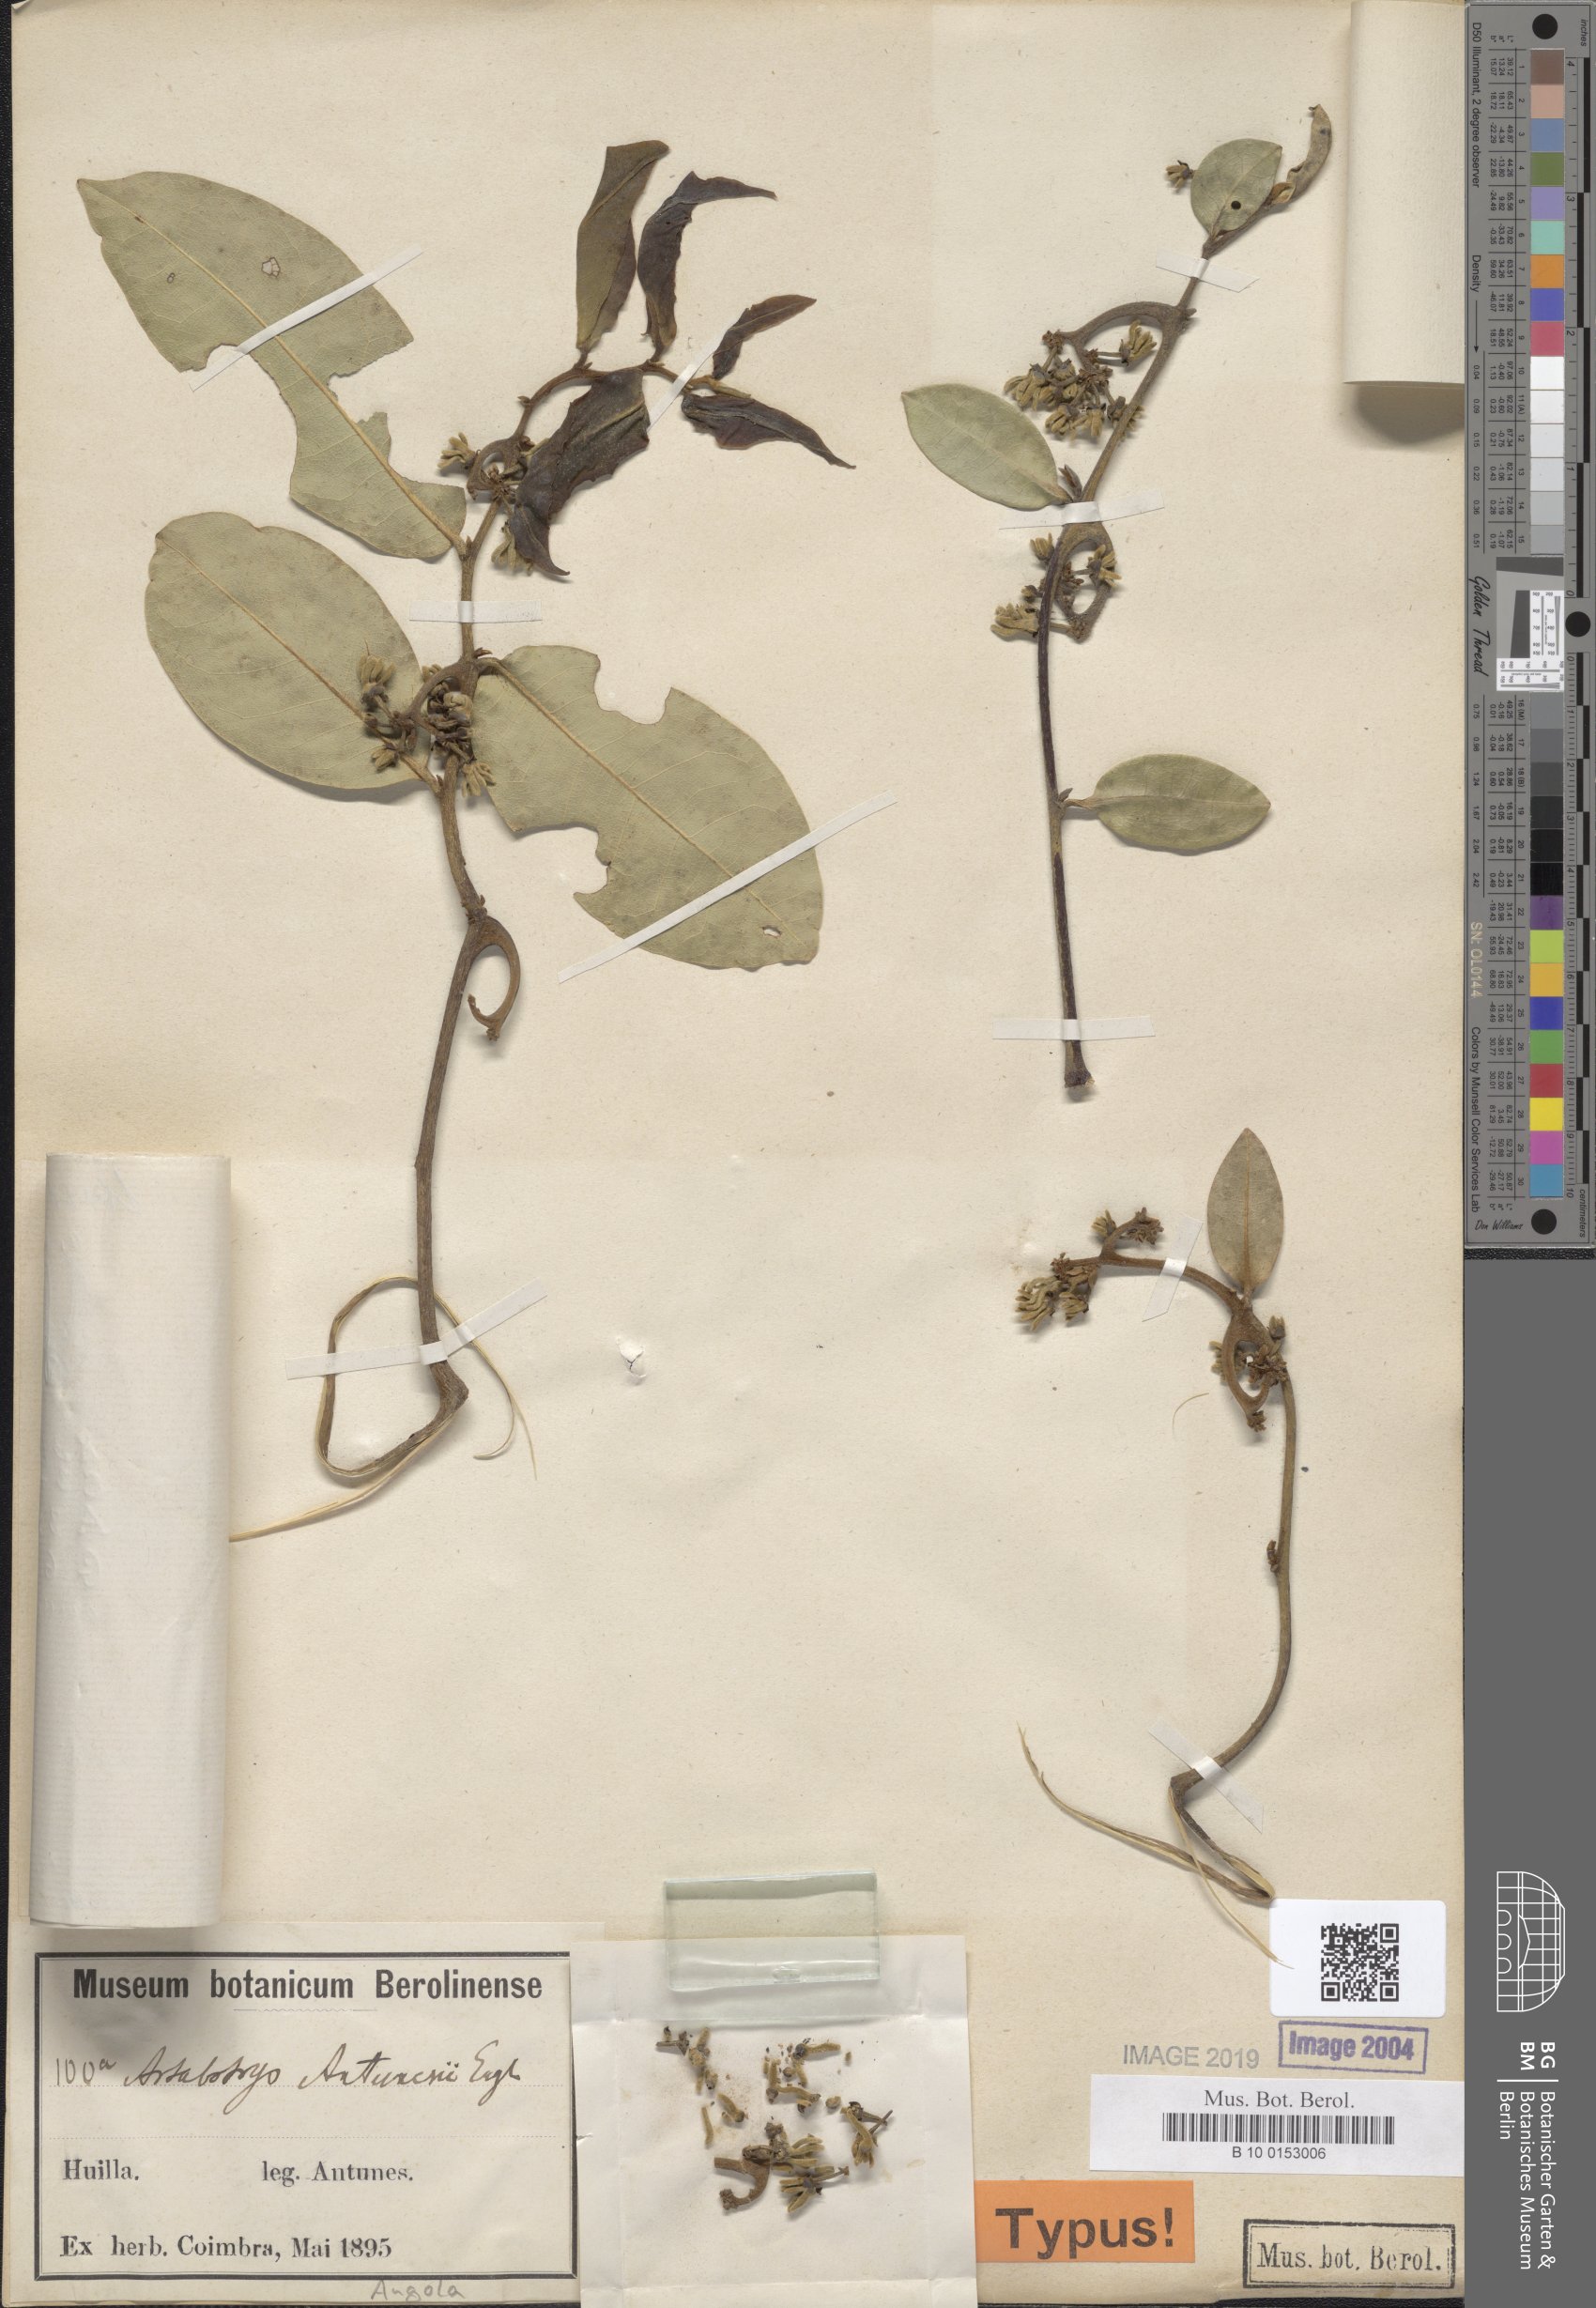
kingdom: Plantae
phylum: Tracheophyta
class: Magnoliopsida
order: Magnoliales
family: Annonaceae
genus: Artabotrys
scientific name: Artabotrys antunesii
